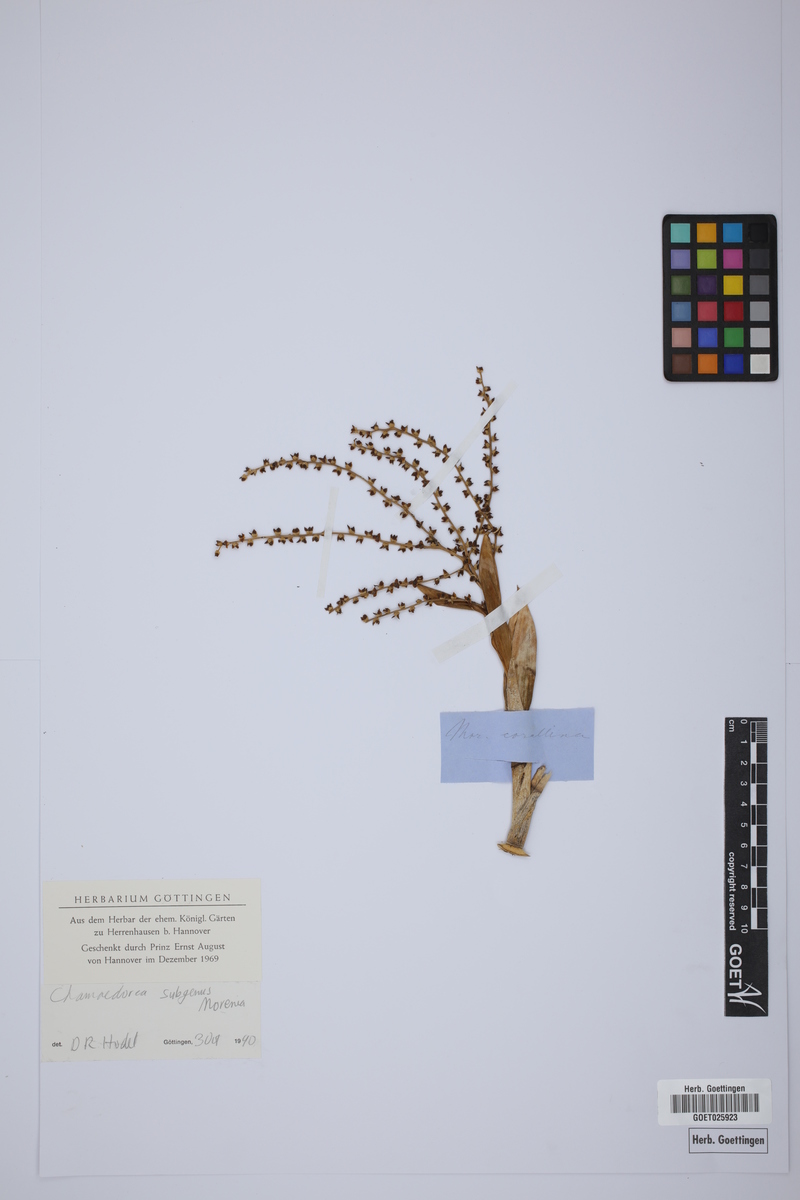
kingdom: Animalia
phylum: Chordata
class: Testudines
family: Geoemydidae
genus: Morenia
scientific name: Morenia
